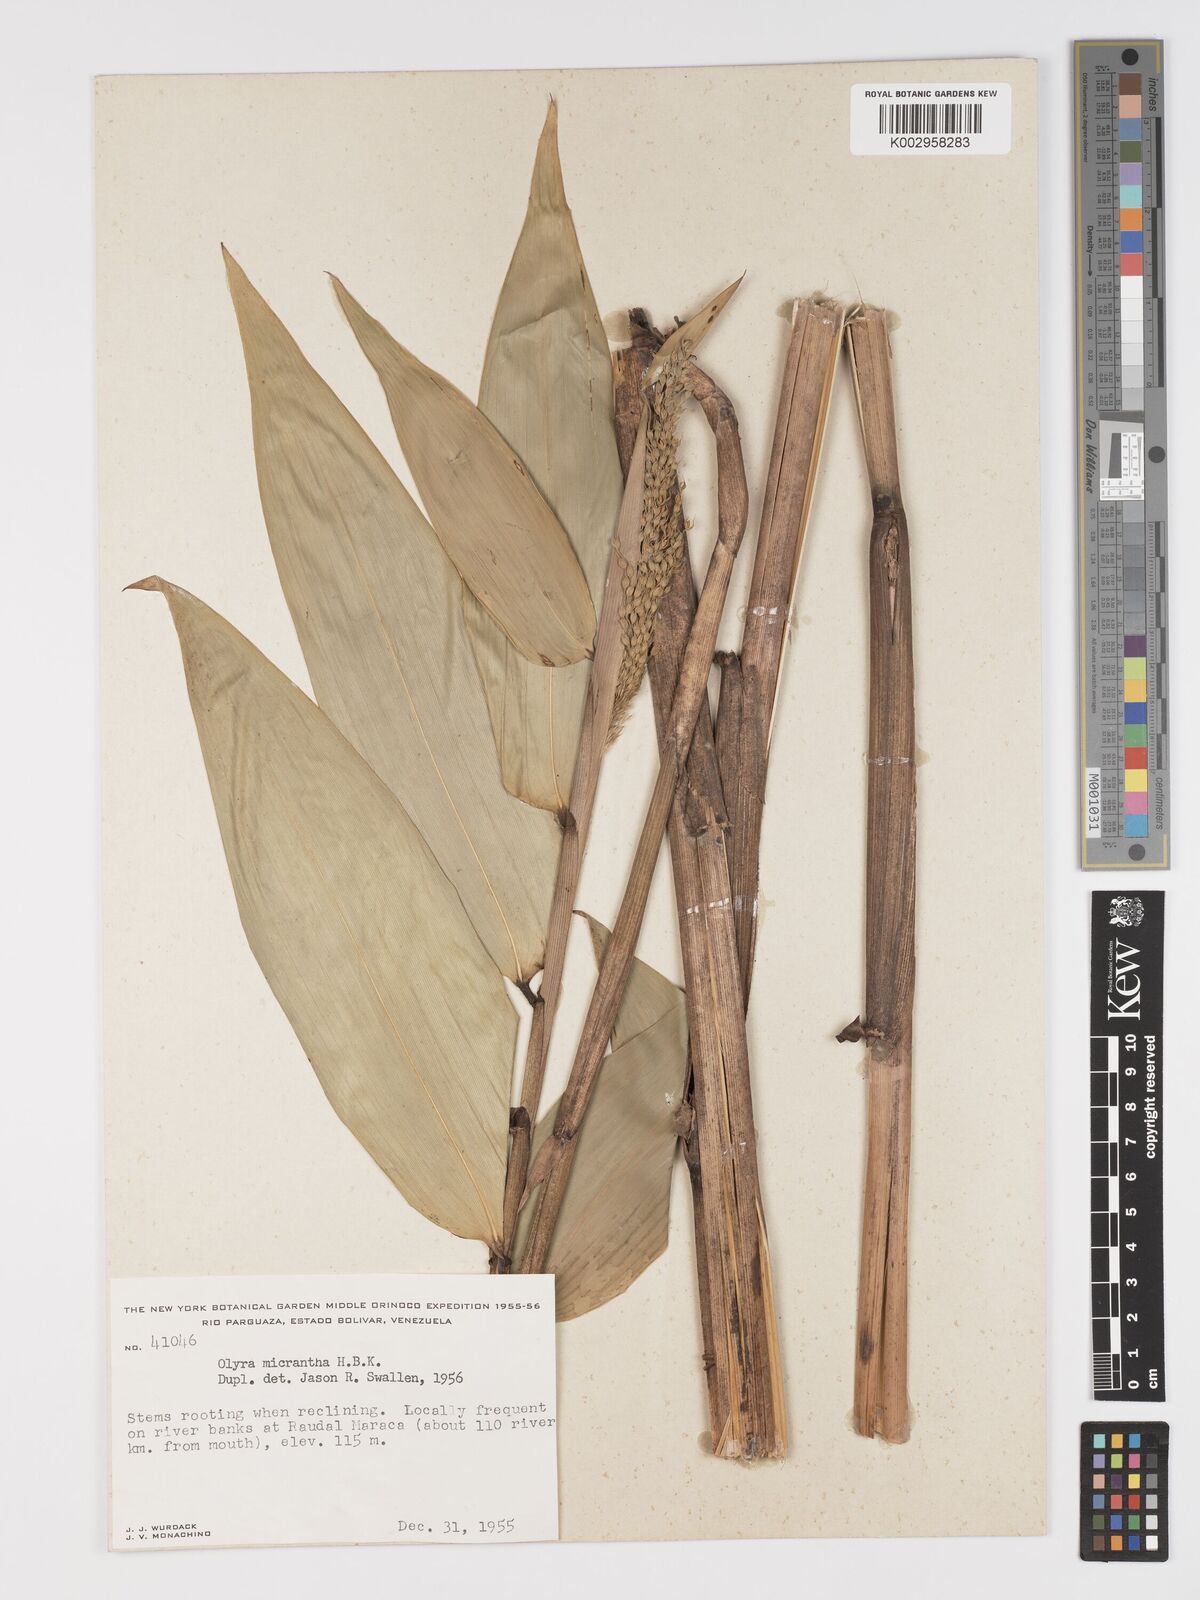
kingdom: Plantae
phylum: Tracheophyta
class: Liliopsida
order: Poales
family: Poaceae
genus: Taquara
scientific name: Taquara micrantha
